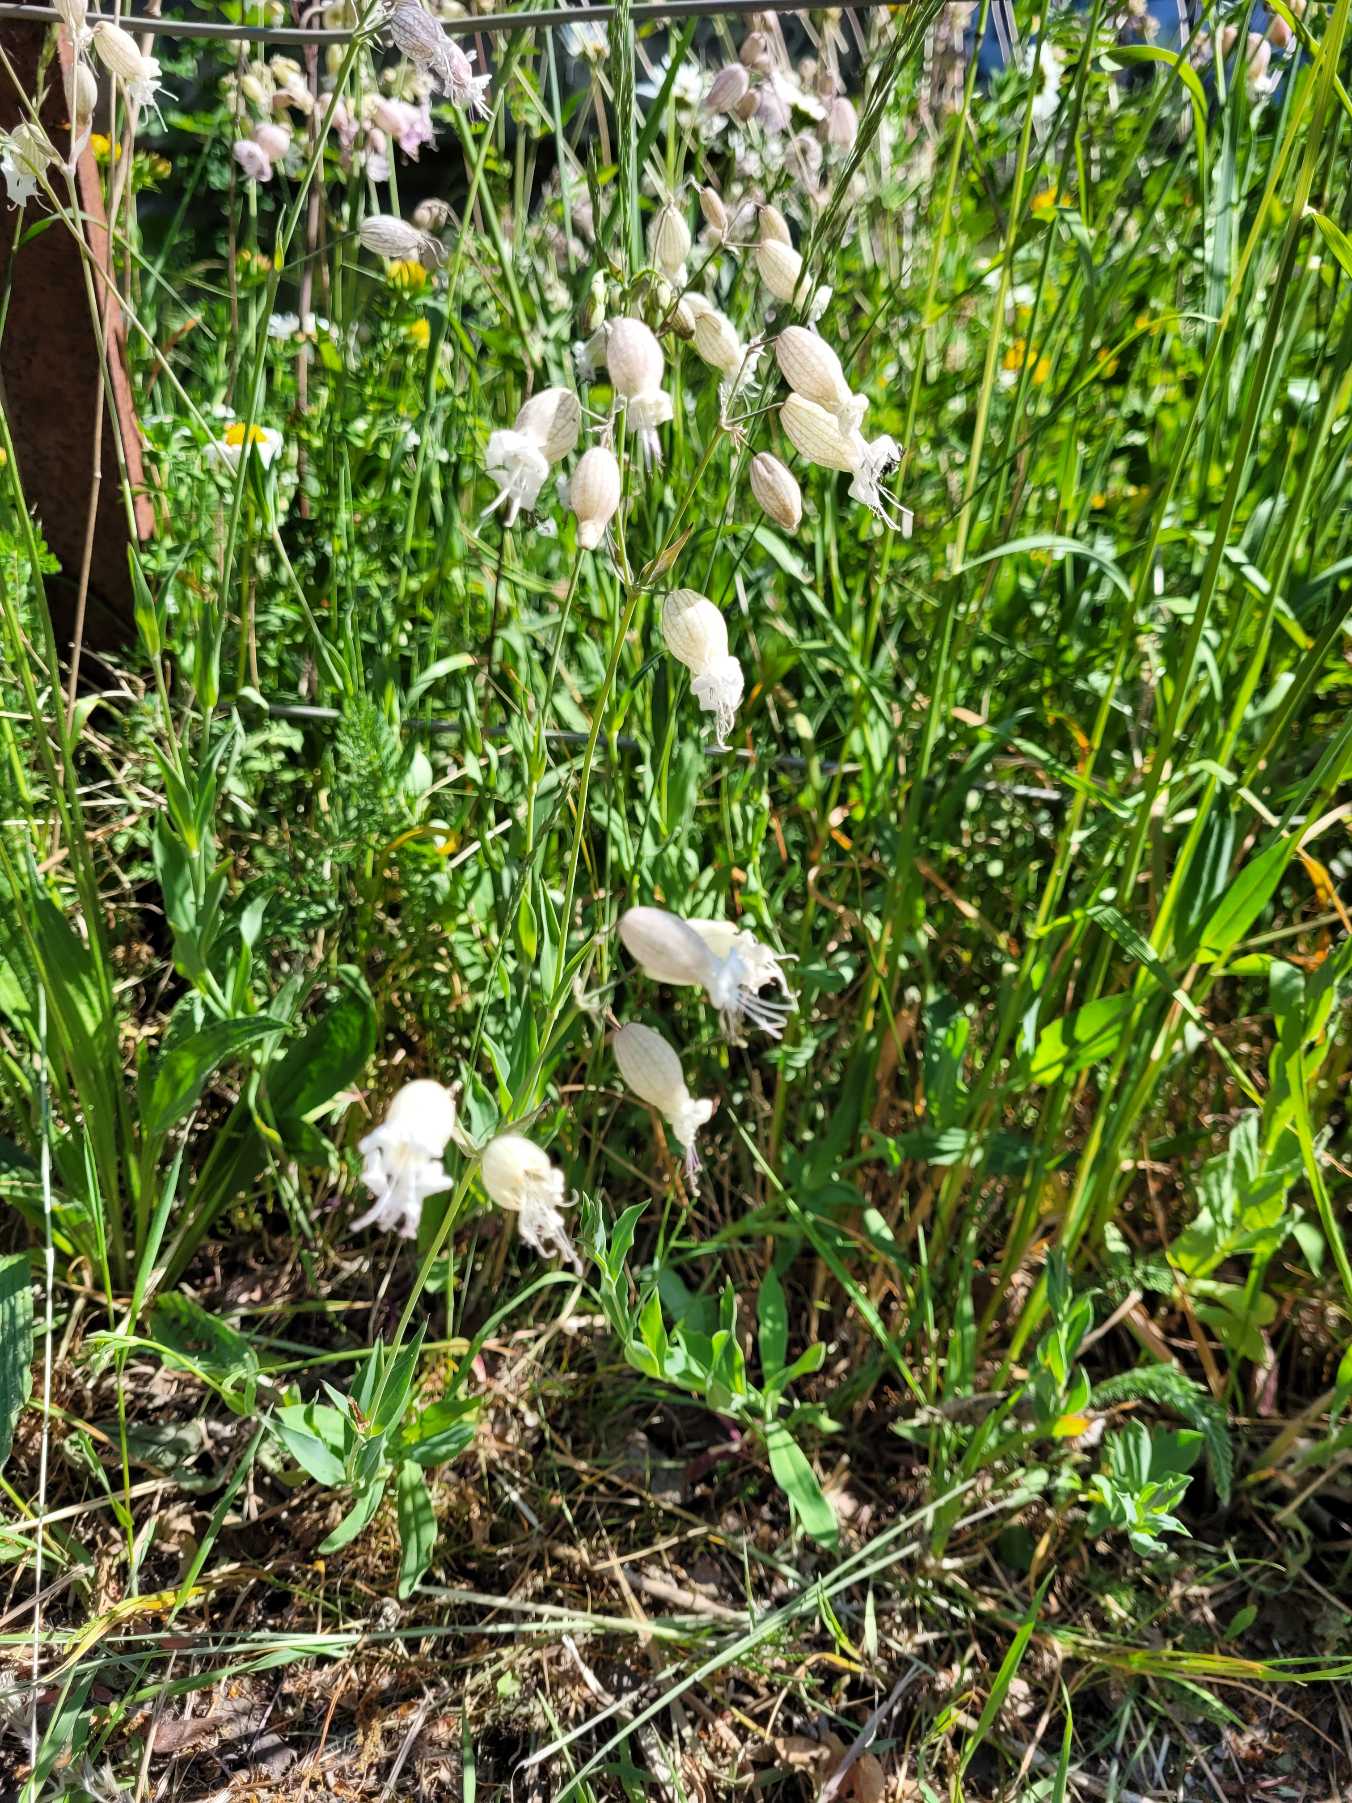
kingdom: Plantae
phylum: Tracheophyta
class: Magnoliopsida
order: Caryophyllales
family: Caryophyllaceae
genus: Silene
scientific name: Silene vulgaris
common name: Blæresmælde
